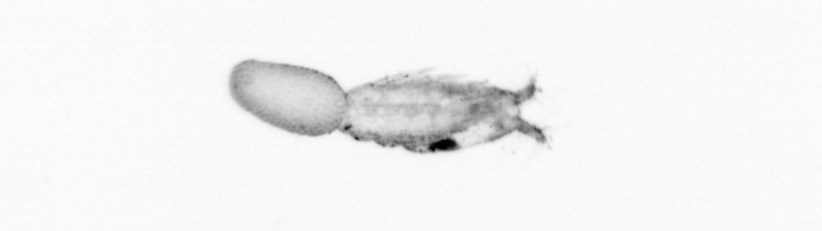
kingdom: Animalia
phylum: Arthropoda
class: Copepoda
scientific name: Copepoda
